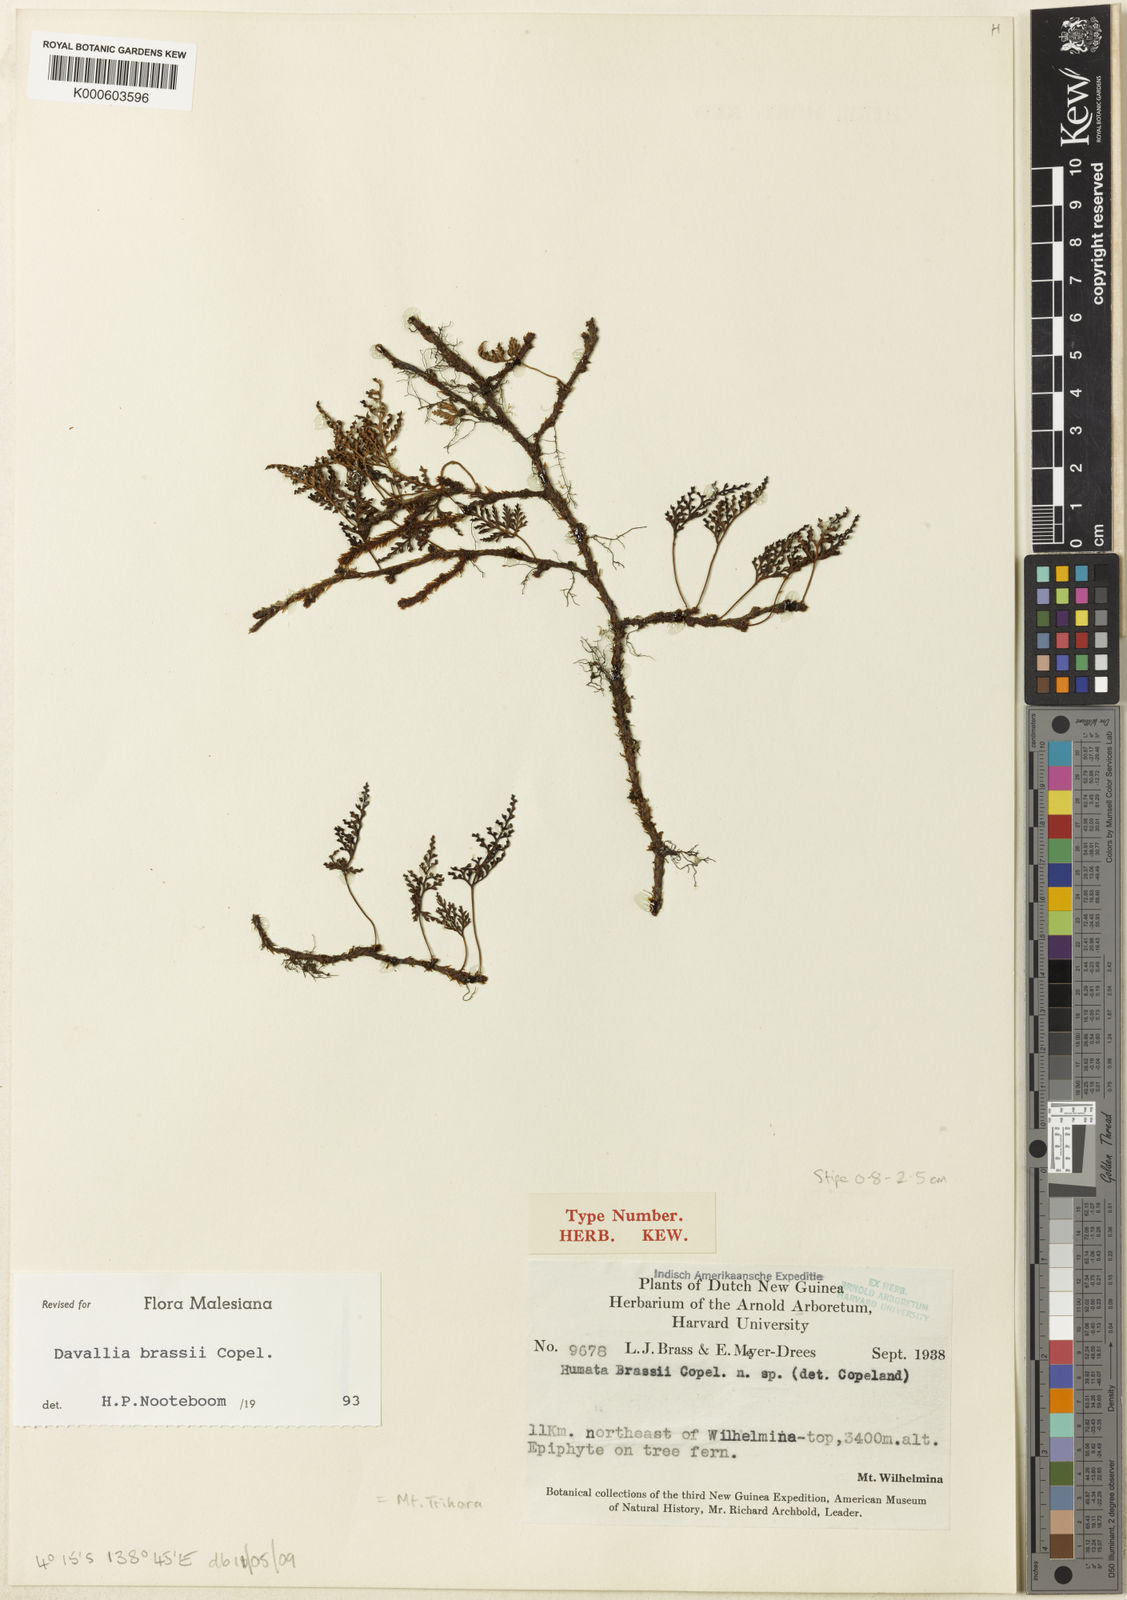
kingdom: Plantae
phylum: Tracheophyta
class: Polypodiopsida
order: Polypodiales
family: Davalliaceae
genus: Davallia
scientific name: Davallia brassii
